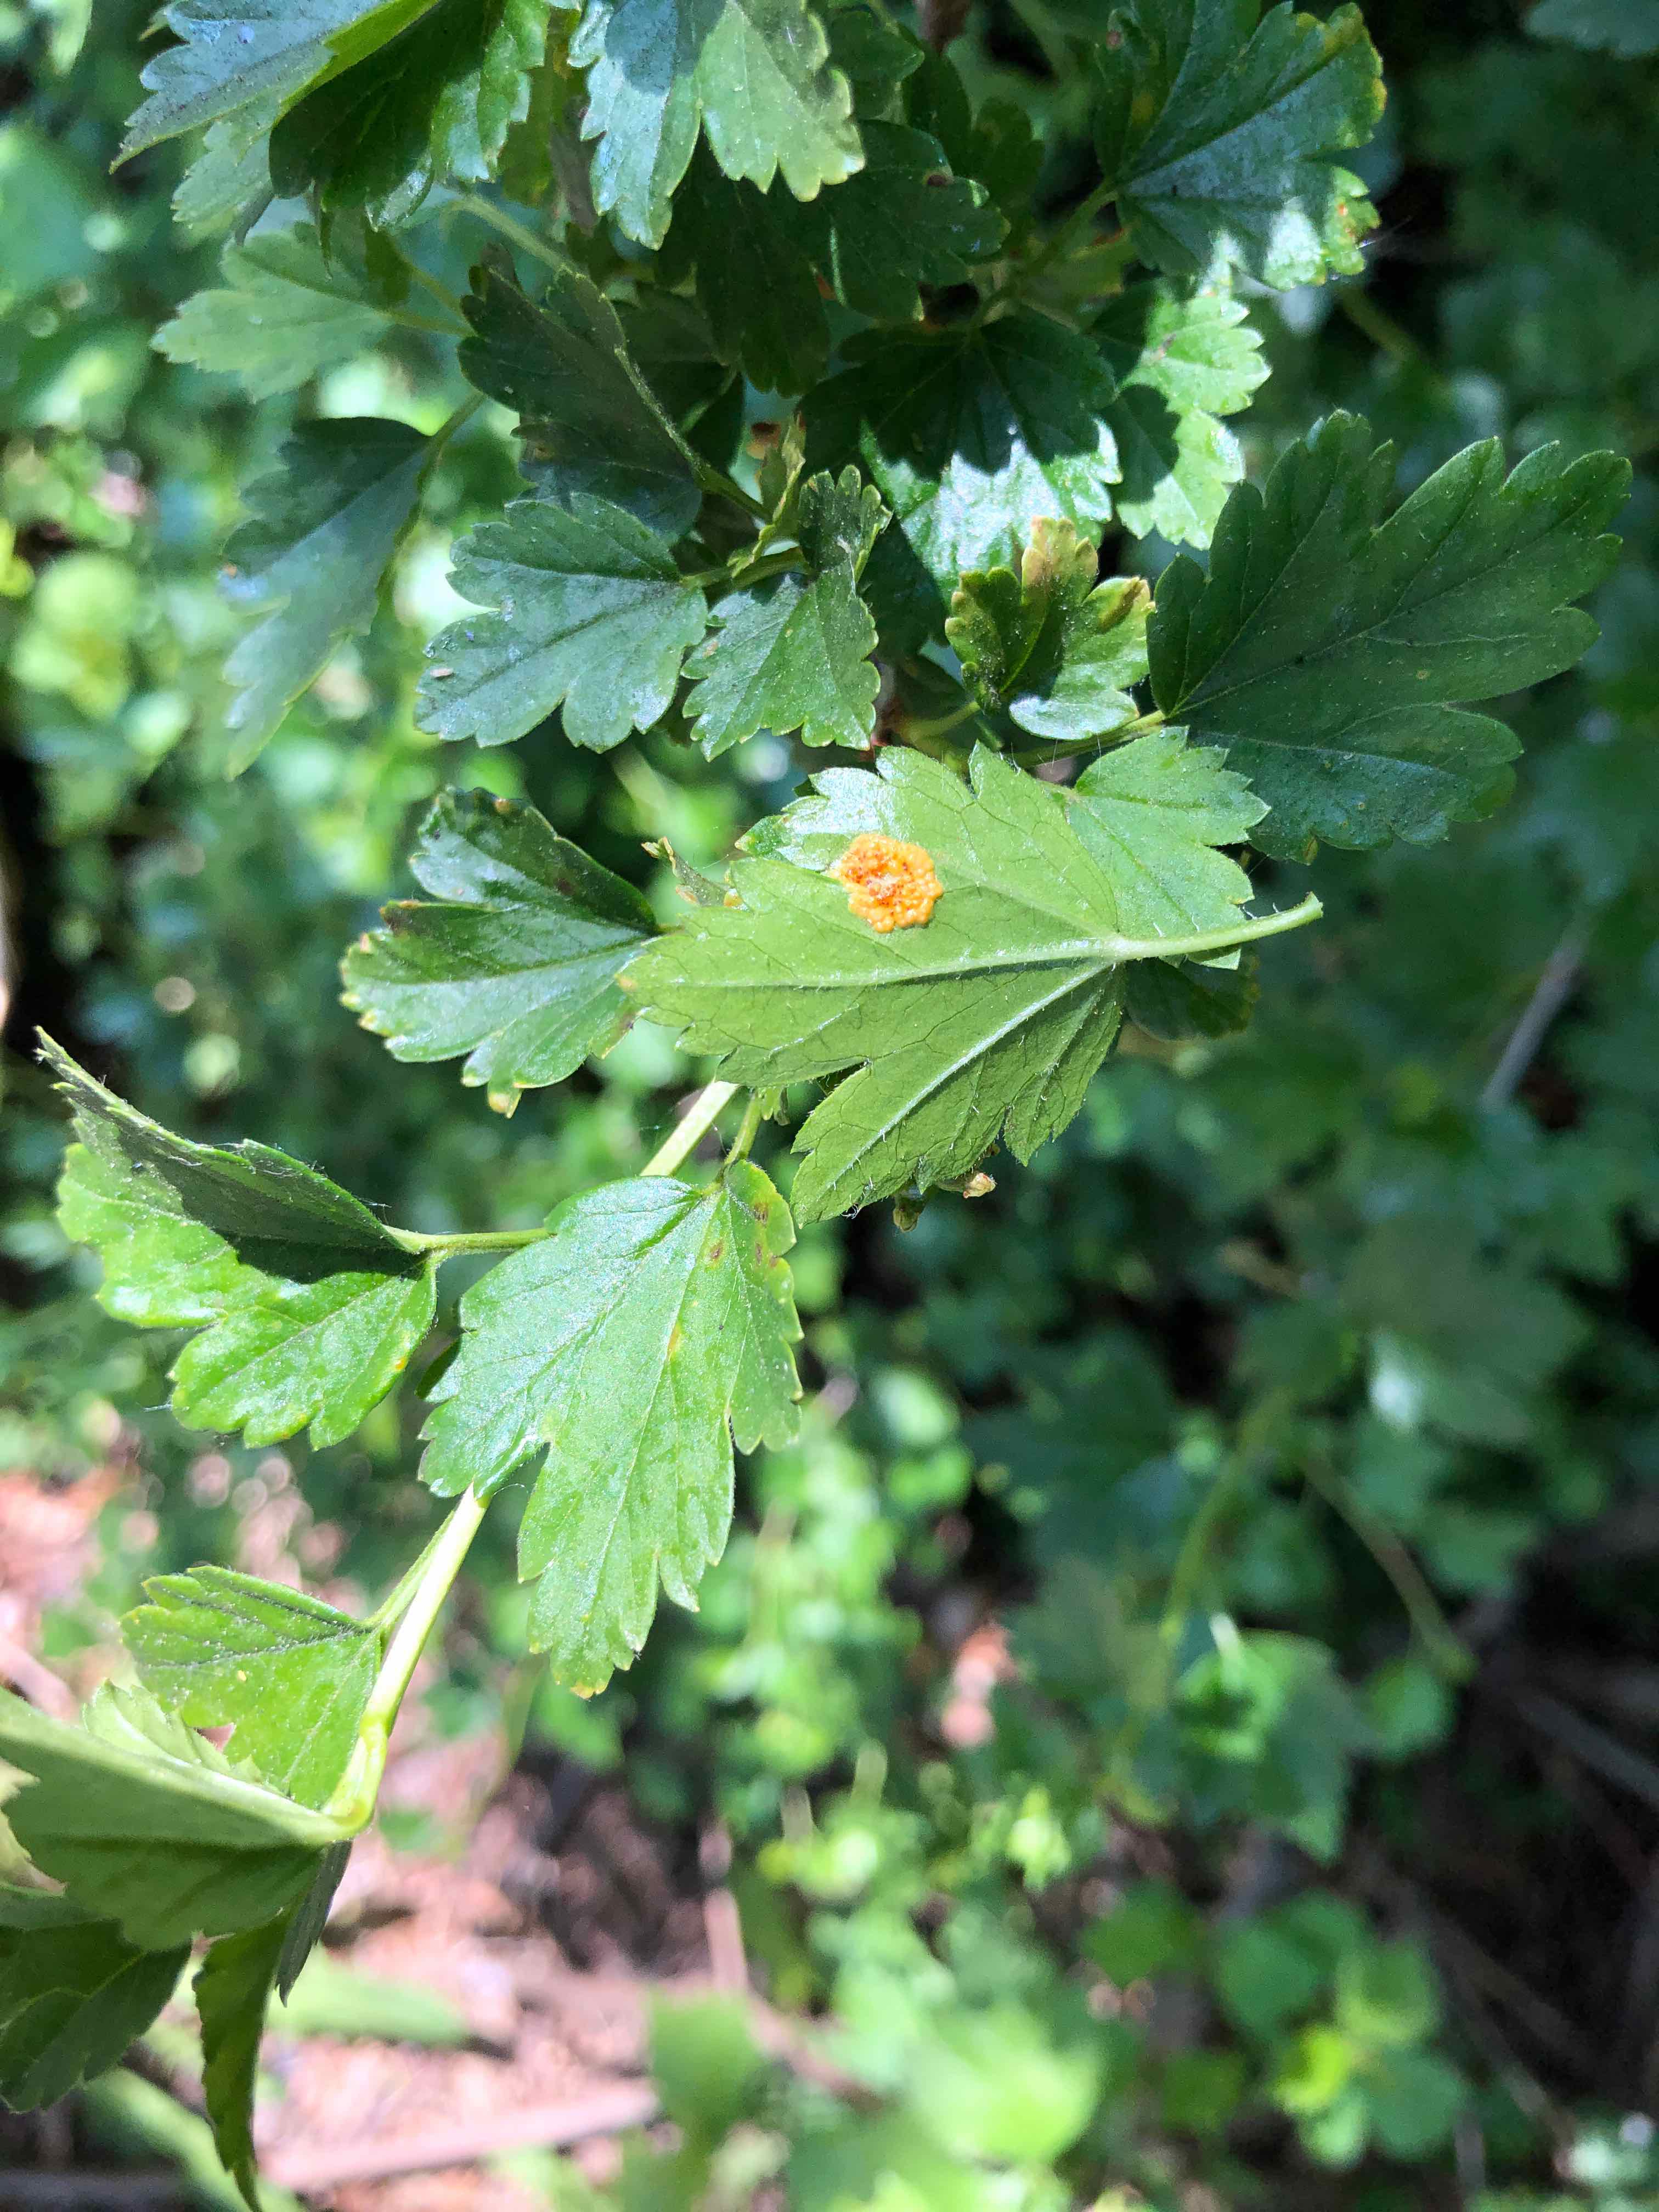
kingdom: Fungi
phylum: Basidiomycota
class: Pucciniomycetes
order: Pucciniales
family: Pucciniaceae
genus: Puccinia
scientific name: Puccinia caricina
